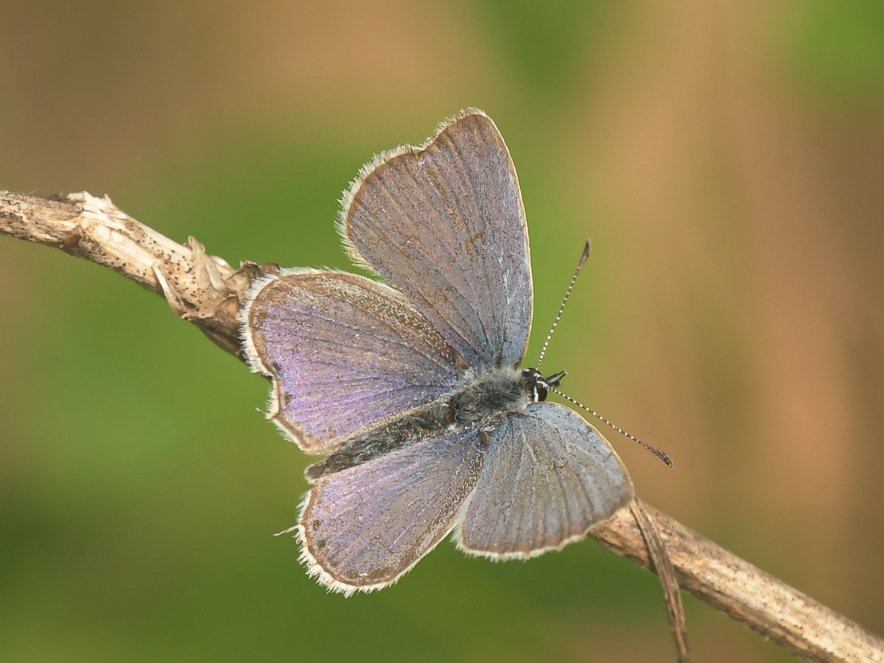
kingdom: Animalia
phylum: Arthropoda
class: Insecta
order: Lepidoptera
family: Lycaenidae
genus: Elkalyce
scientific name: Elkalyce amyntula
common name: Western Tailed-Blue
